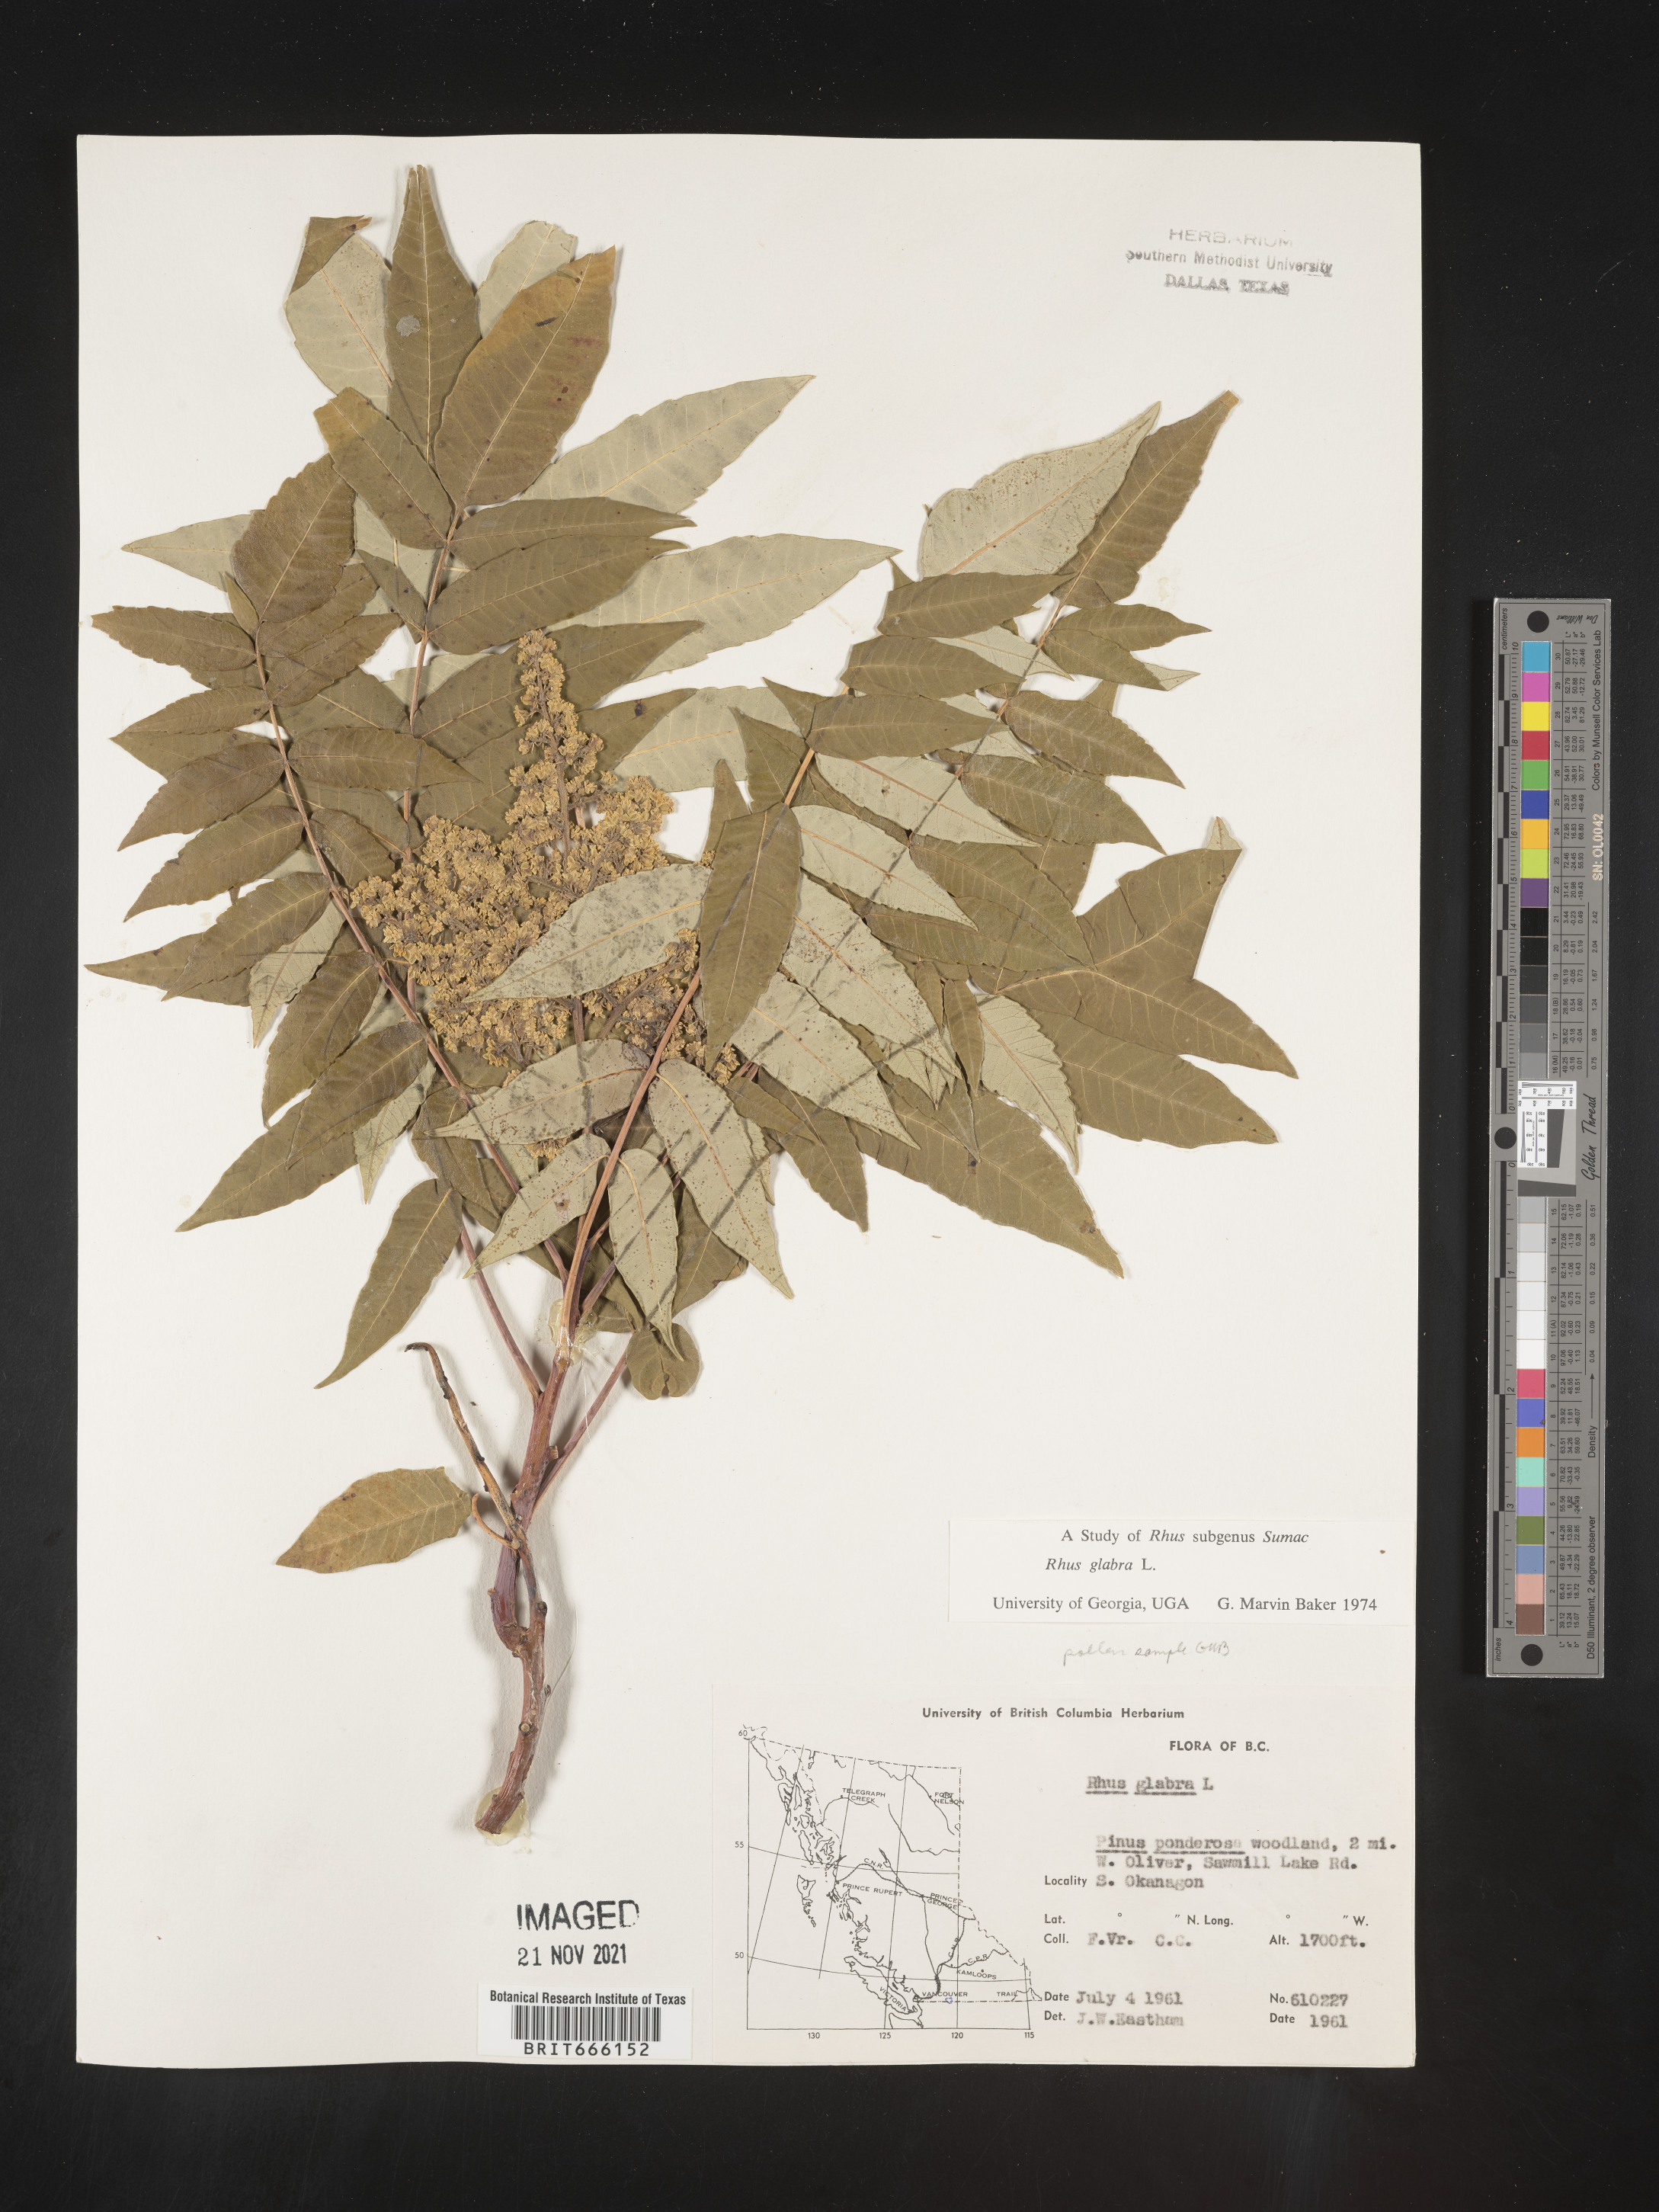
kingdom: Plantae
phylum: Tracheophyta
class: Magnoliopsida
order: Sapindales
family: Anacardiaceae
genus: Rhus
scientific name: Rhus glabra
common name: Scarlet sumac
